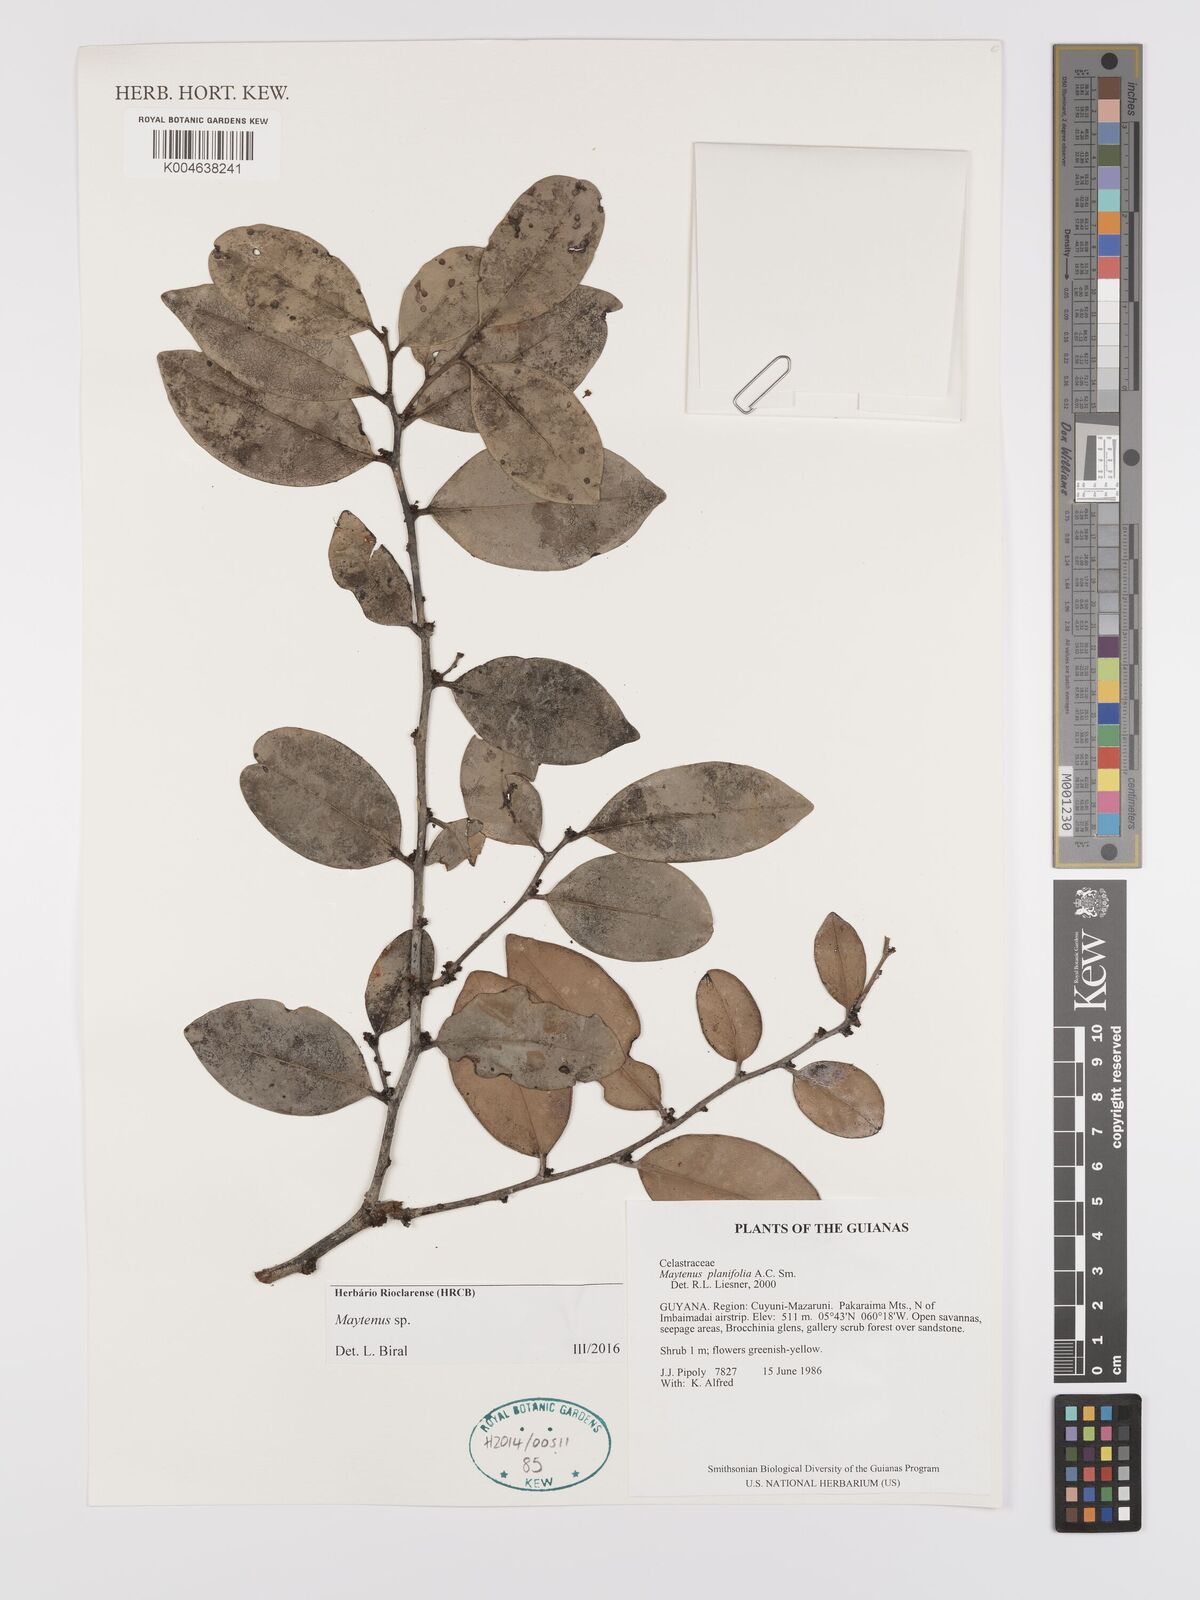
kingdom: Plantae
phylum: Tracheophyta
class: Magnoliopsida
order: Celastrales
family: Celastraceae
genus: Maytenus
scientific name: Maytenus
